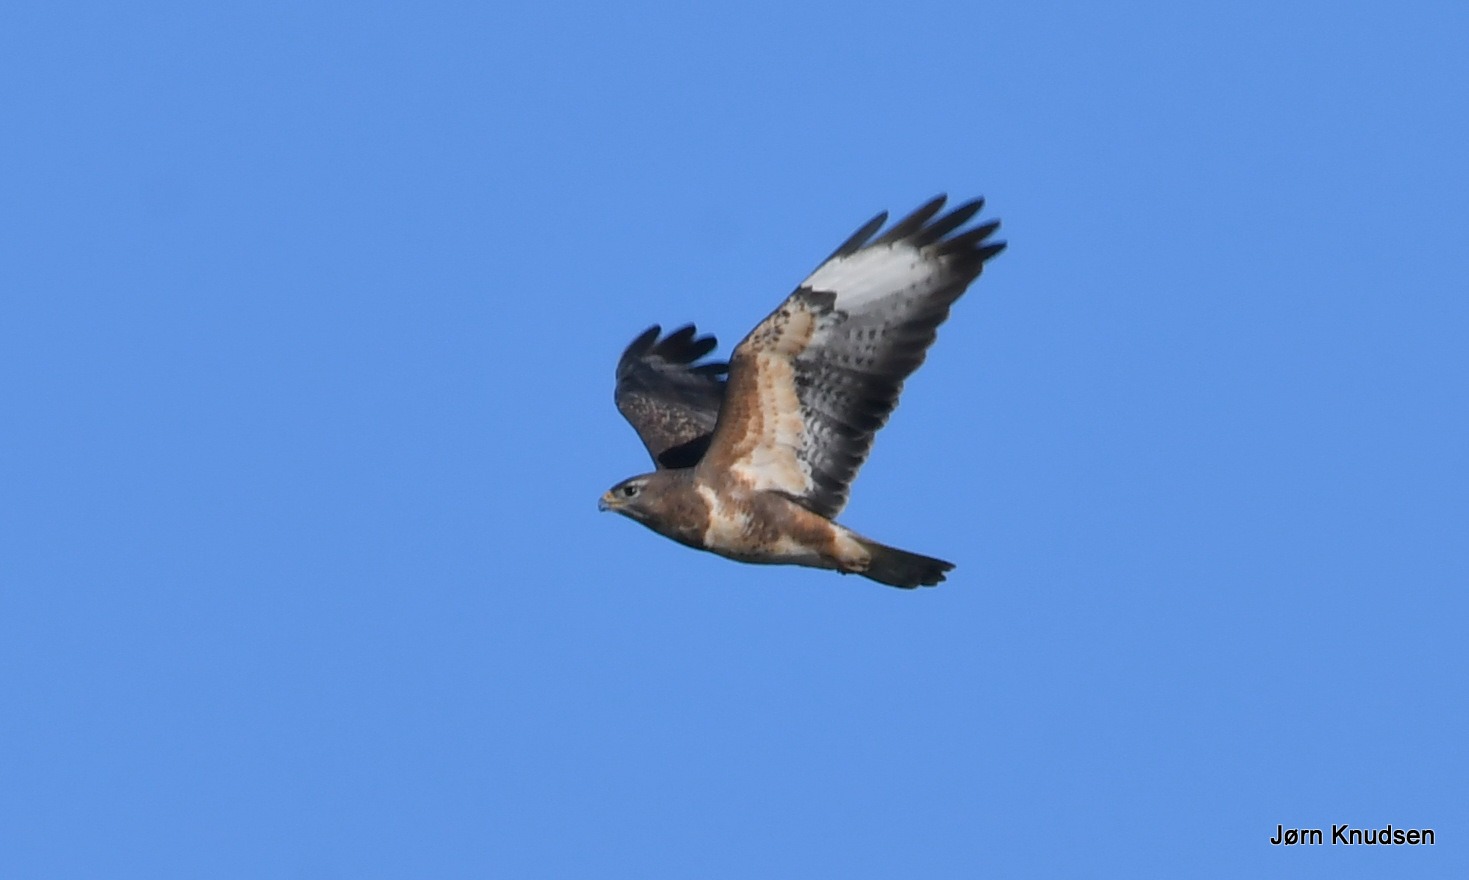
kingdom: Animalia
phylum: Chordata
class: Aves
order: Accipitriformes
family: Accipitridae
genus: Buteo
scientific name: Buteo buteo
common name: Musvåge
